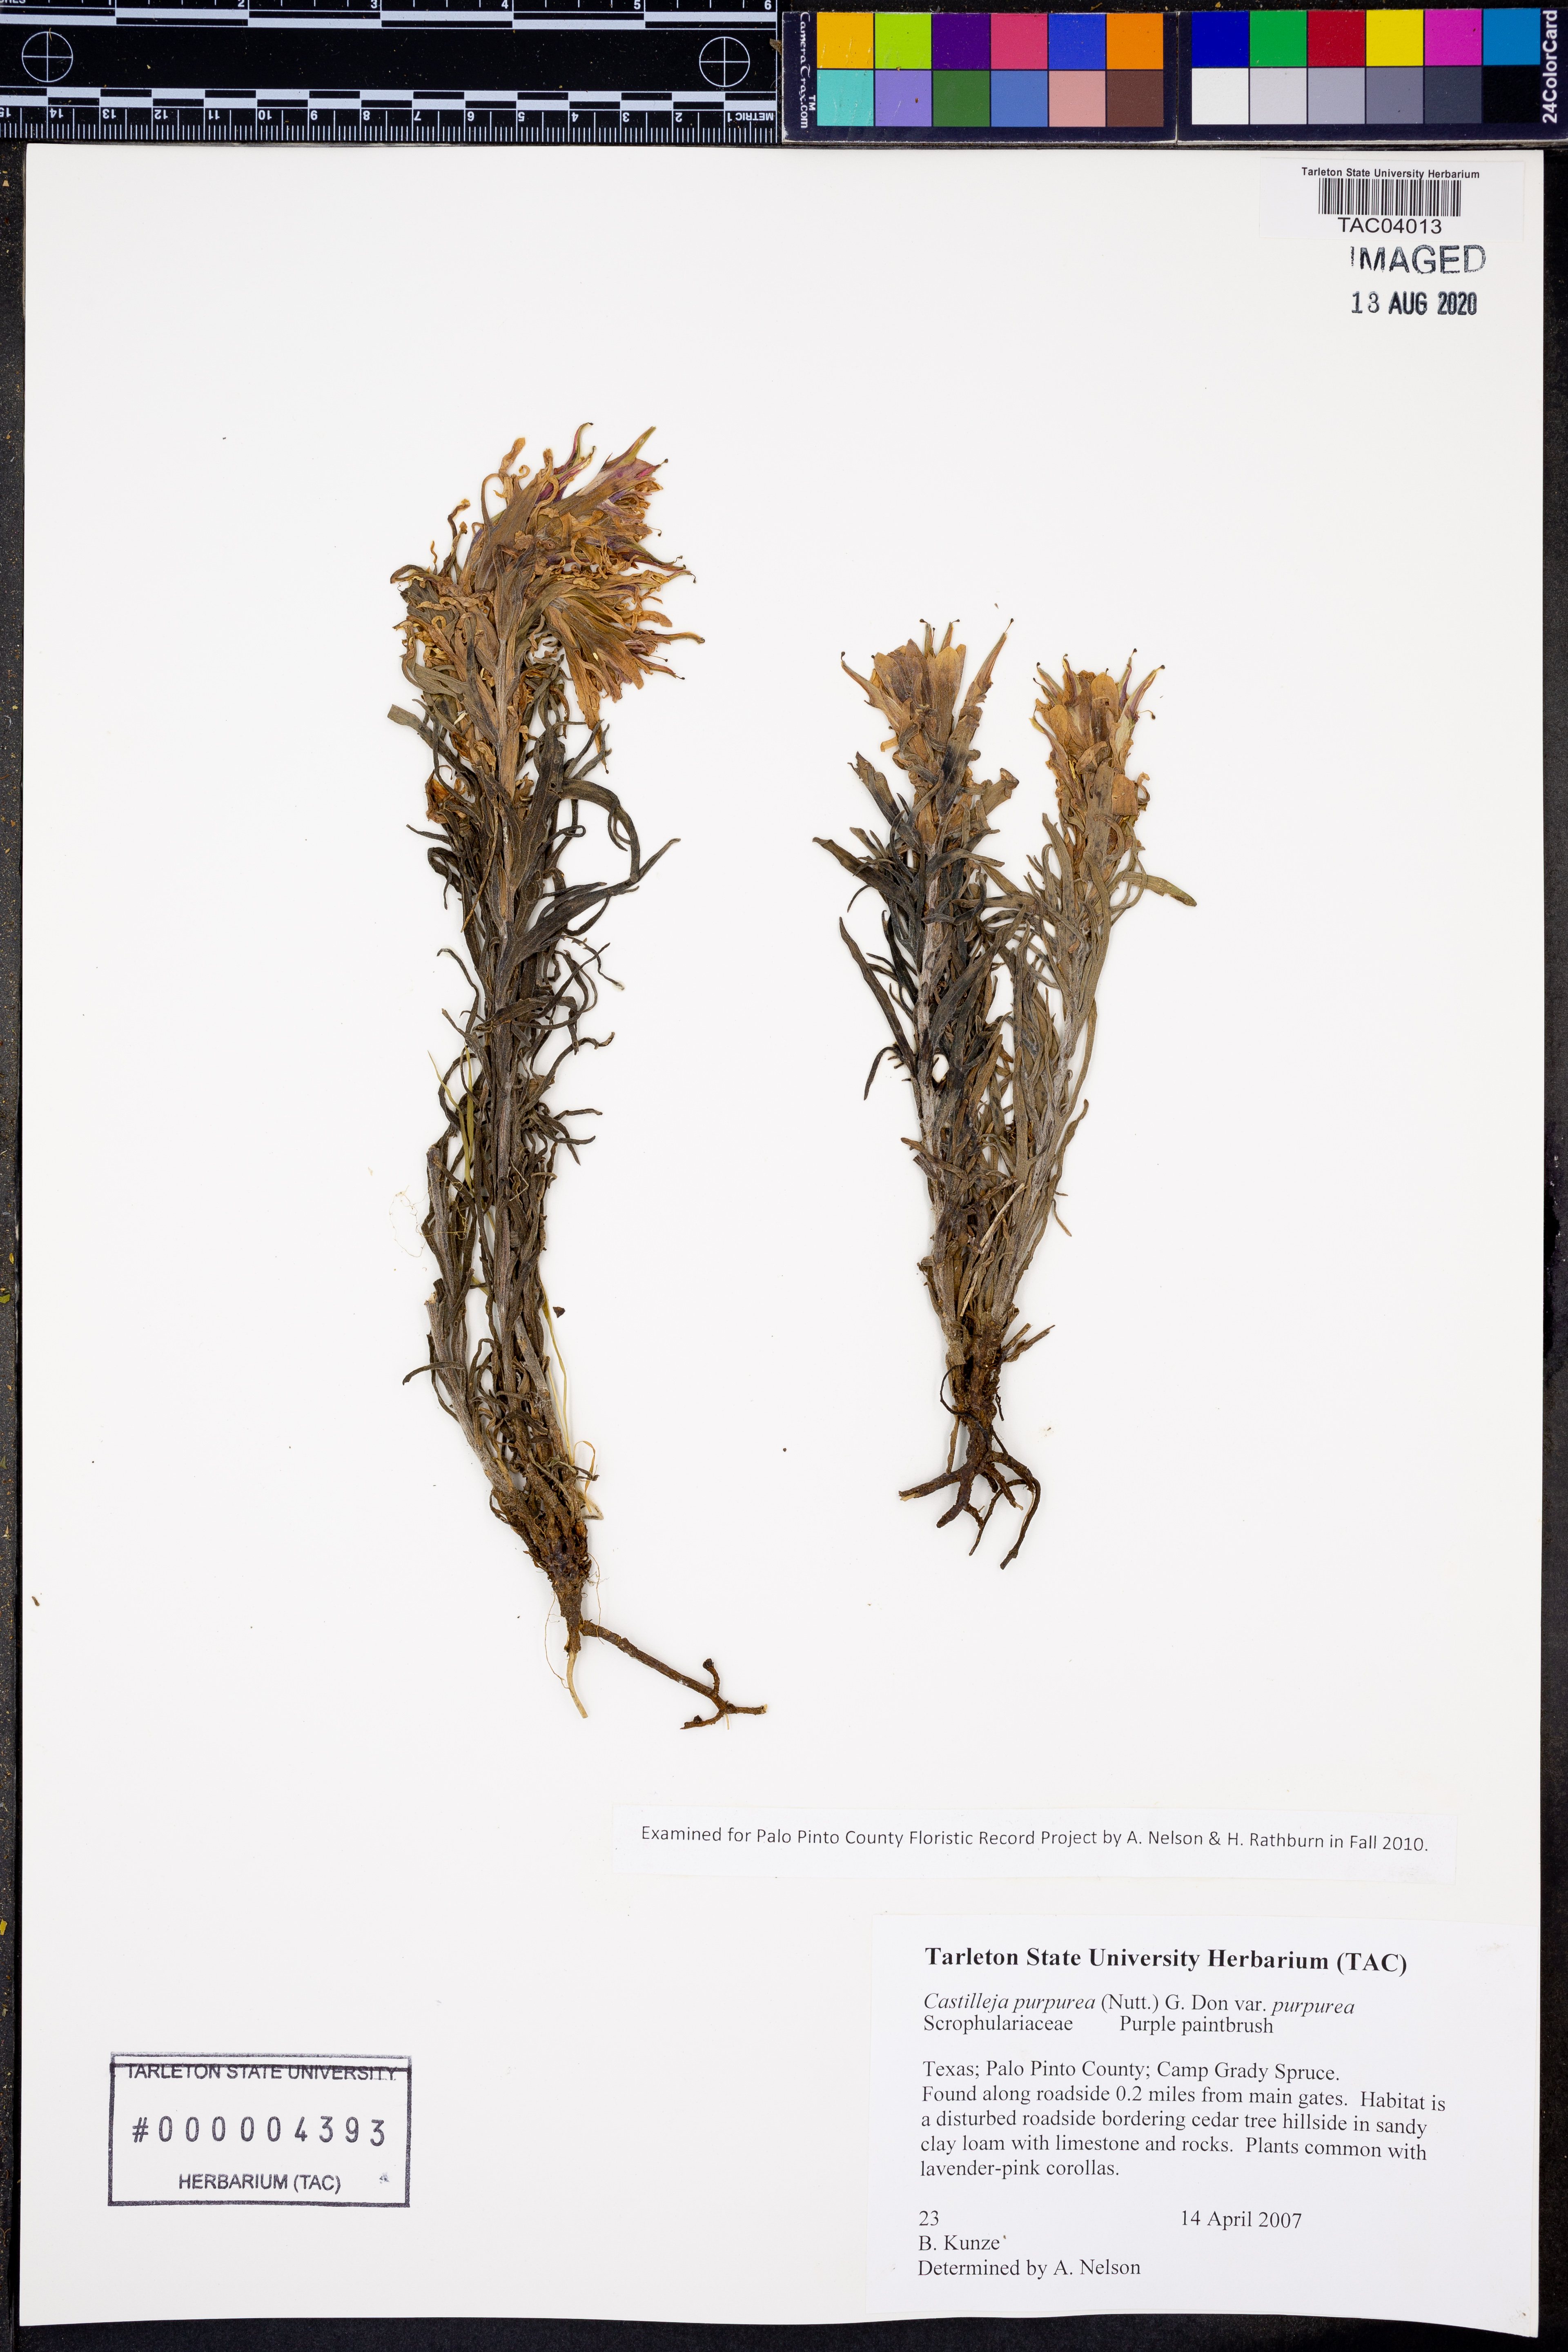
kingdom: Plantae
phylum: Tracheophyta
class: Magnoliopsida
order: Lamiales
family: Orobanchaceae
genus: Castilleja
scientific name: Castilleja purpurea
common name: Plains paintbrush
